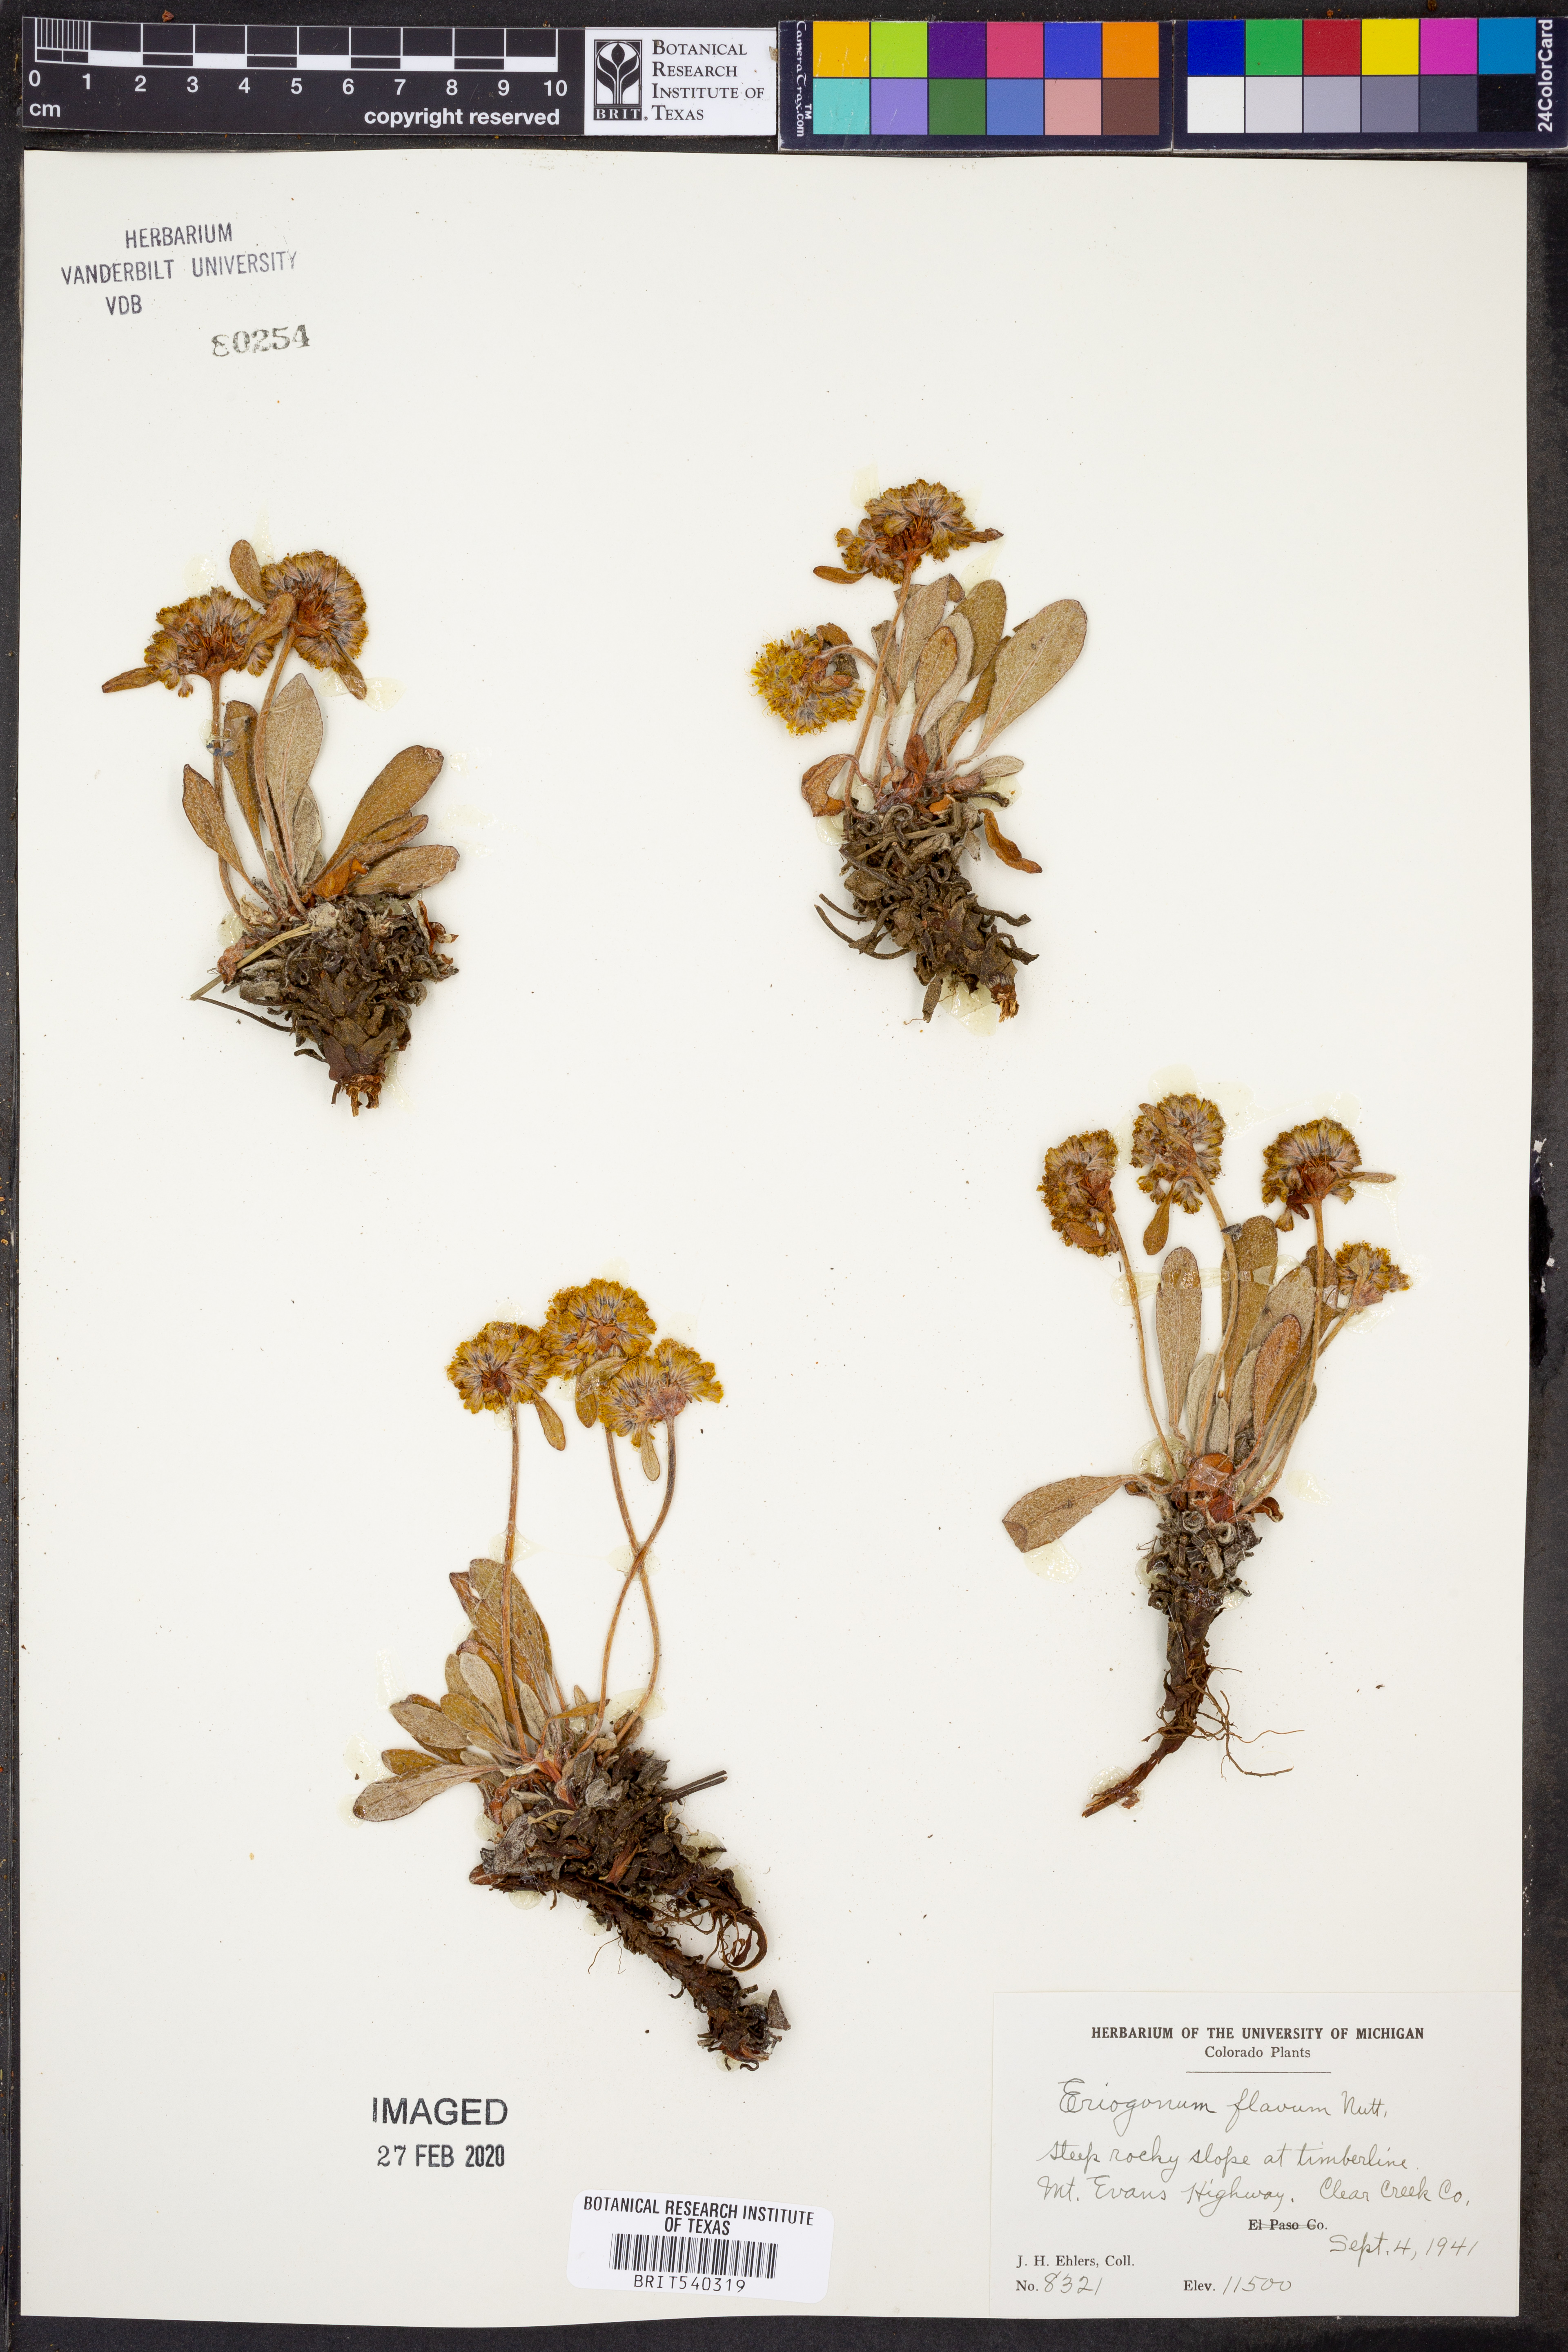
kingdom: Plantae
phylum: Tracheophyta
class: Magnoliopsida
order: Caryophyllales
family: Polygonaceae
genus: Eriogonum
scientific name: Eriogonum flavum
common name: Alpine golden wild buckwheat
